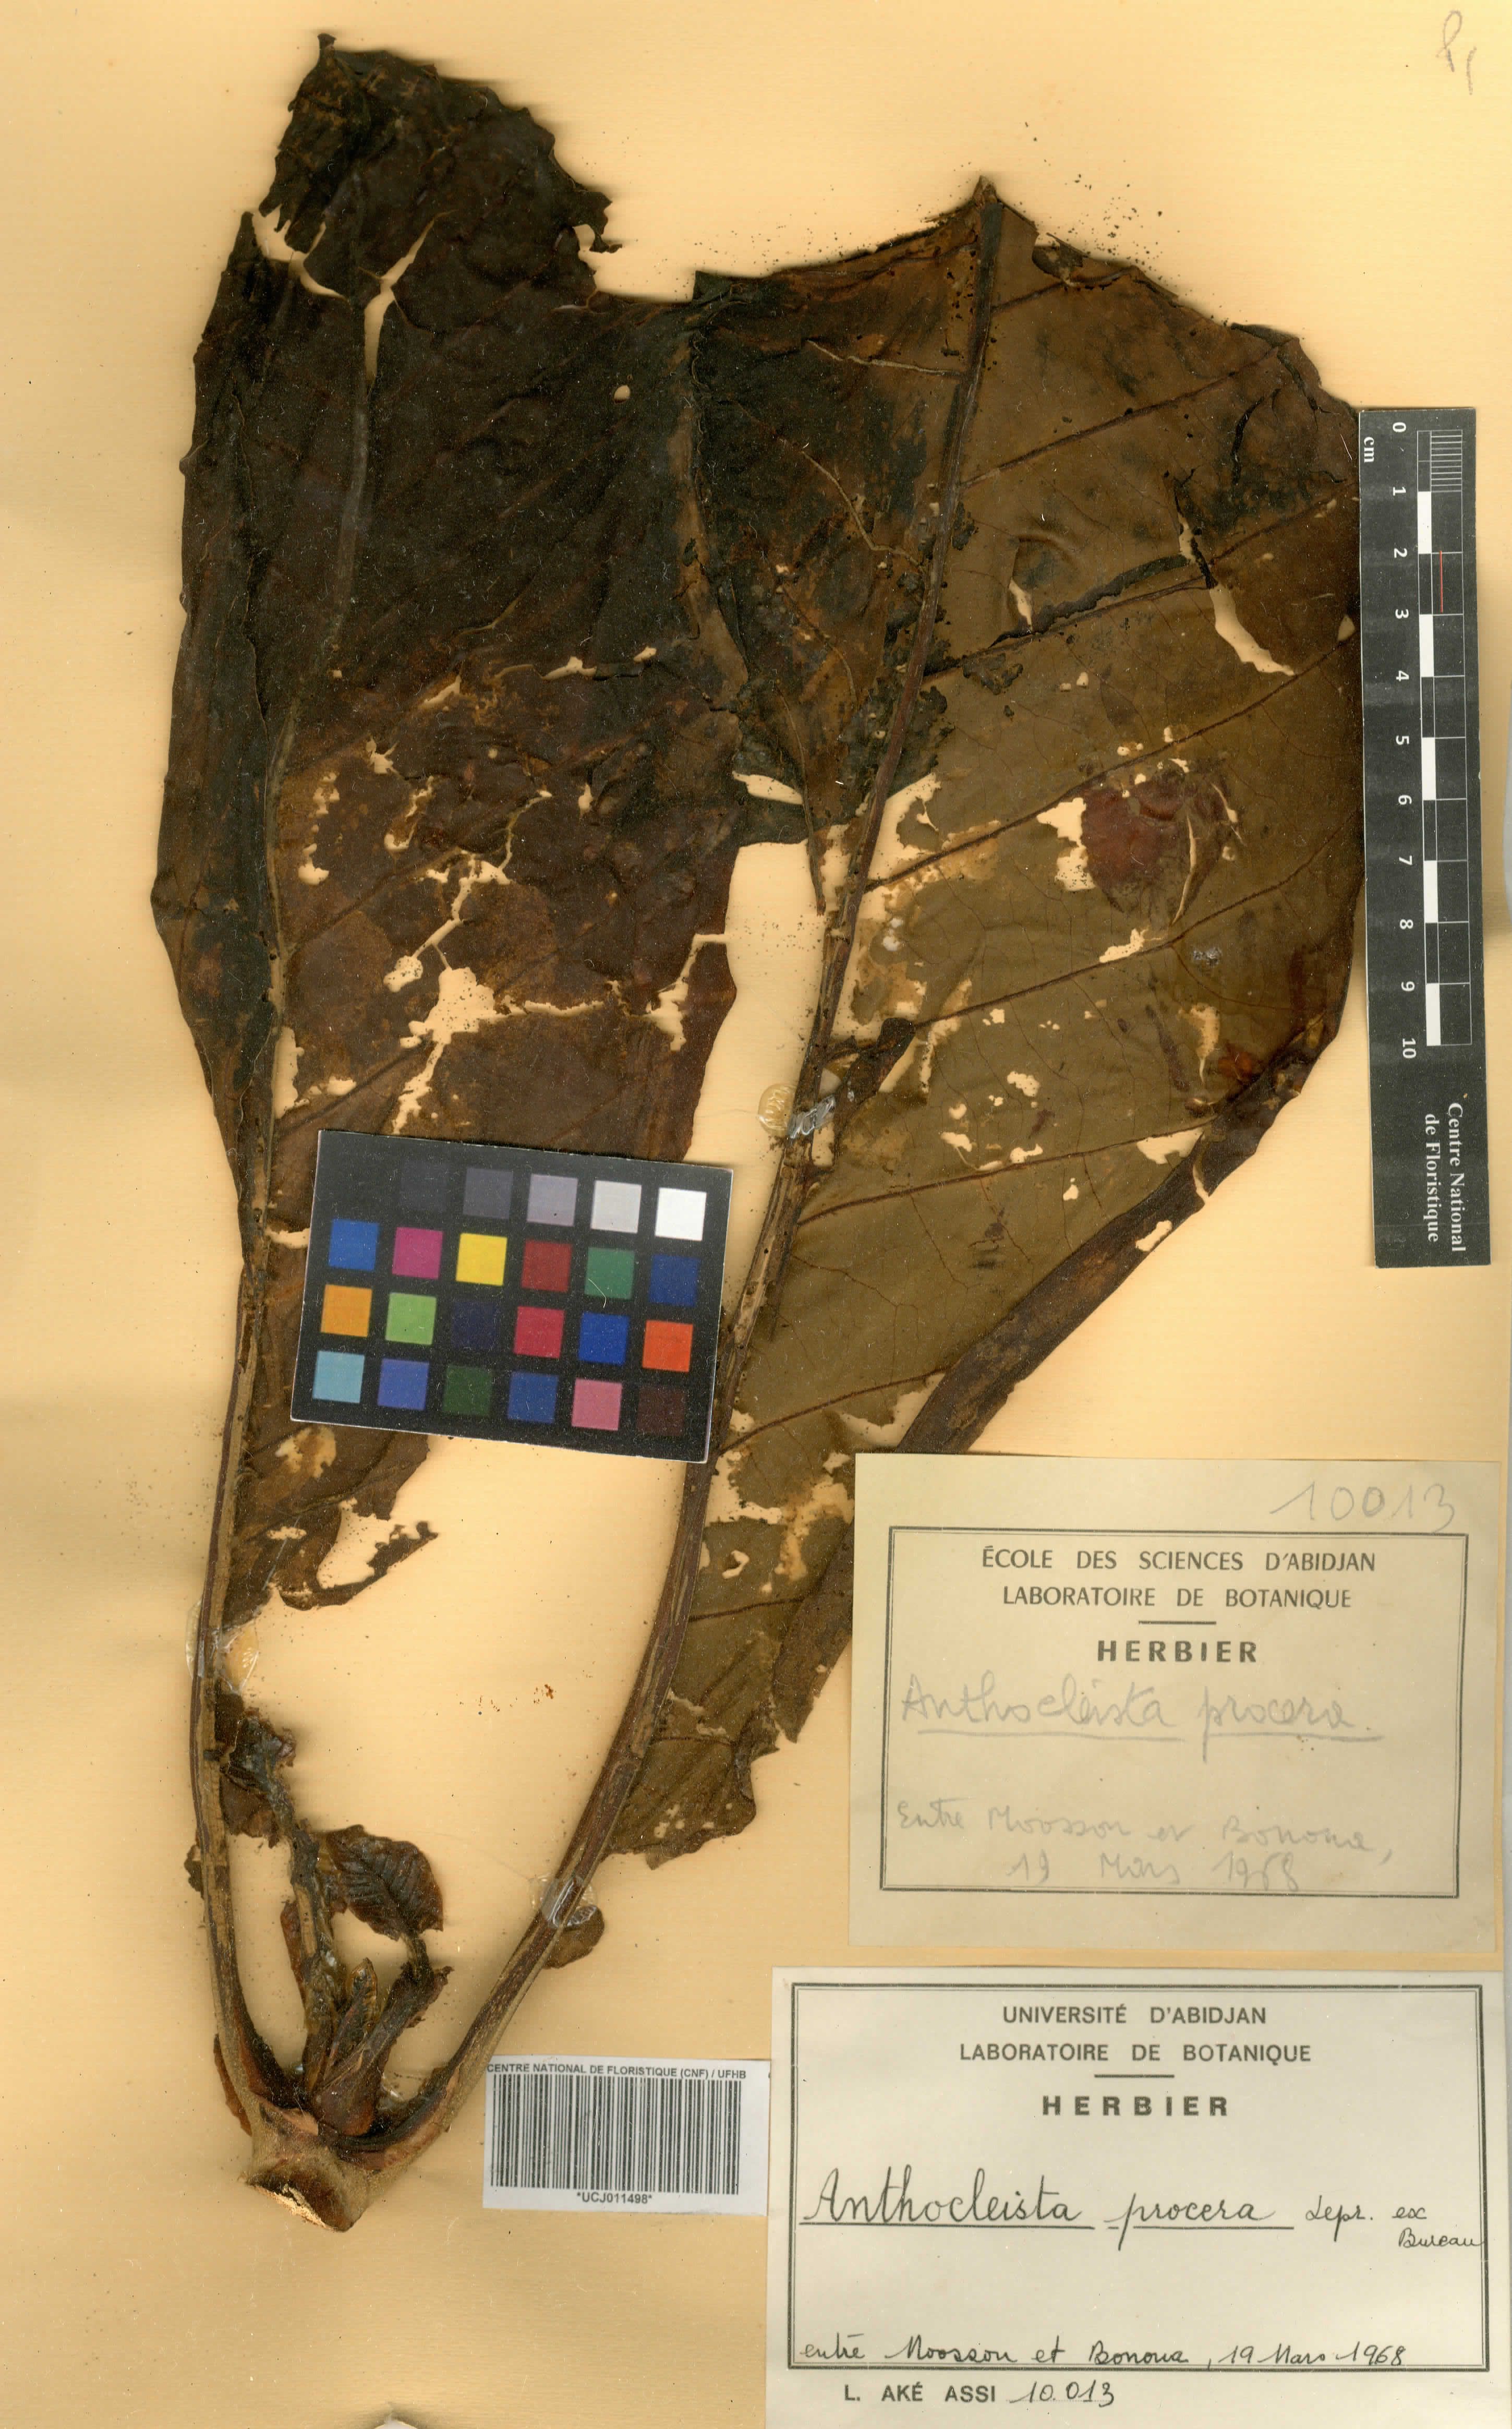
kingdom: Plantae
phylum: Tracheophyta
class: Magnoliopsida
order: Gentianales
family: Gentianaceae
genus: Anthocleista
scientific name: Anthocleista procera
